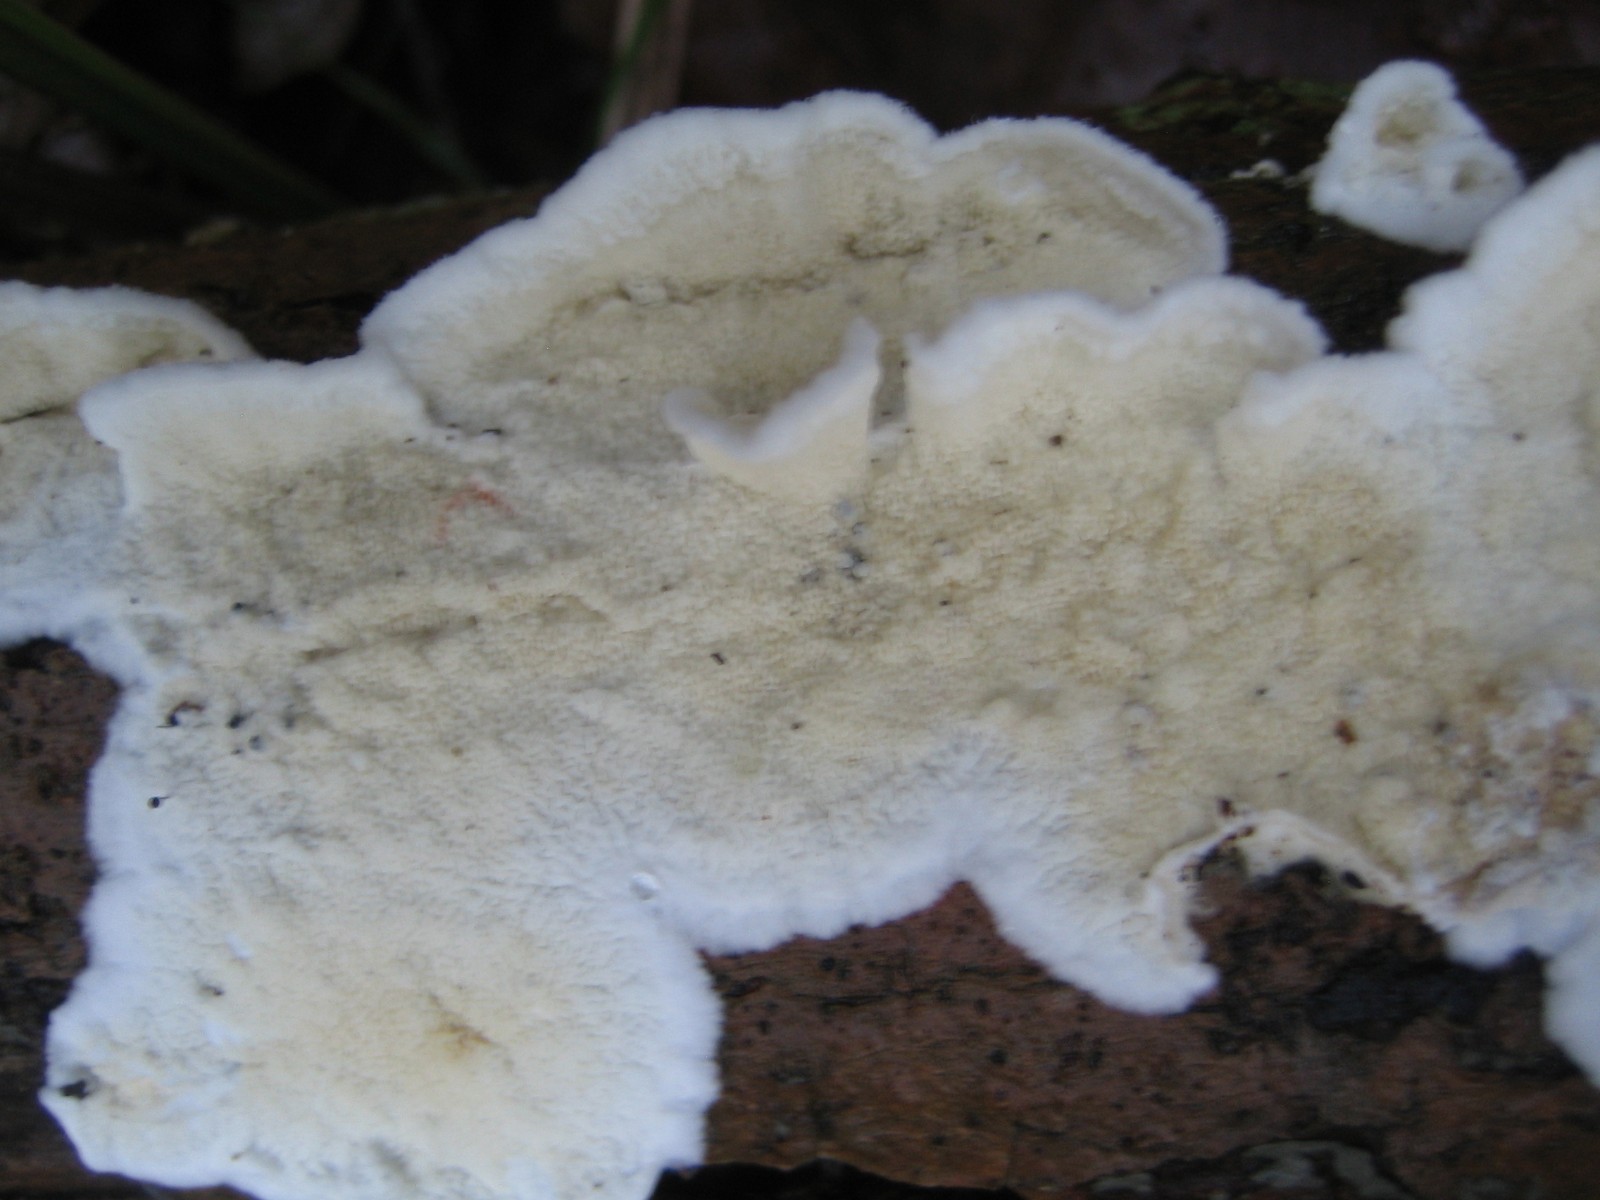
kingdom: Fungi
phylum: Basidiomycota
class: Agaricomycetes
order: Polyporales
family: Irpicaceae
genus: Byssomerulius
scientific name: Byssomerulius corium
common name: læder-åresvamp
